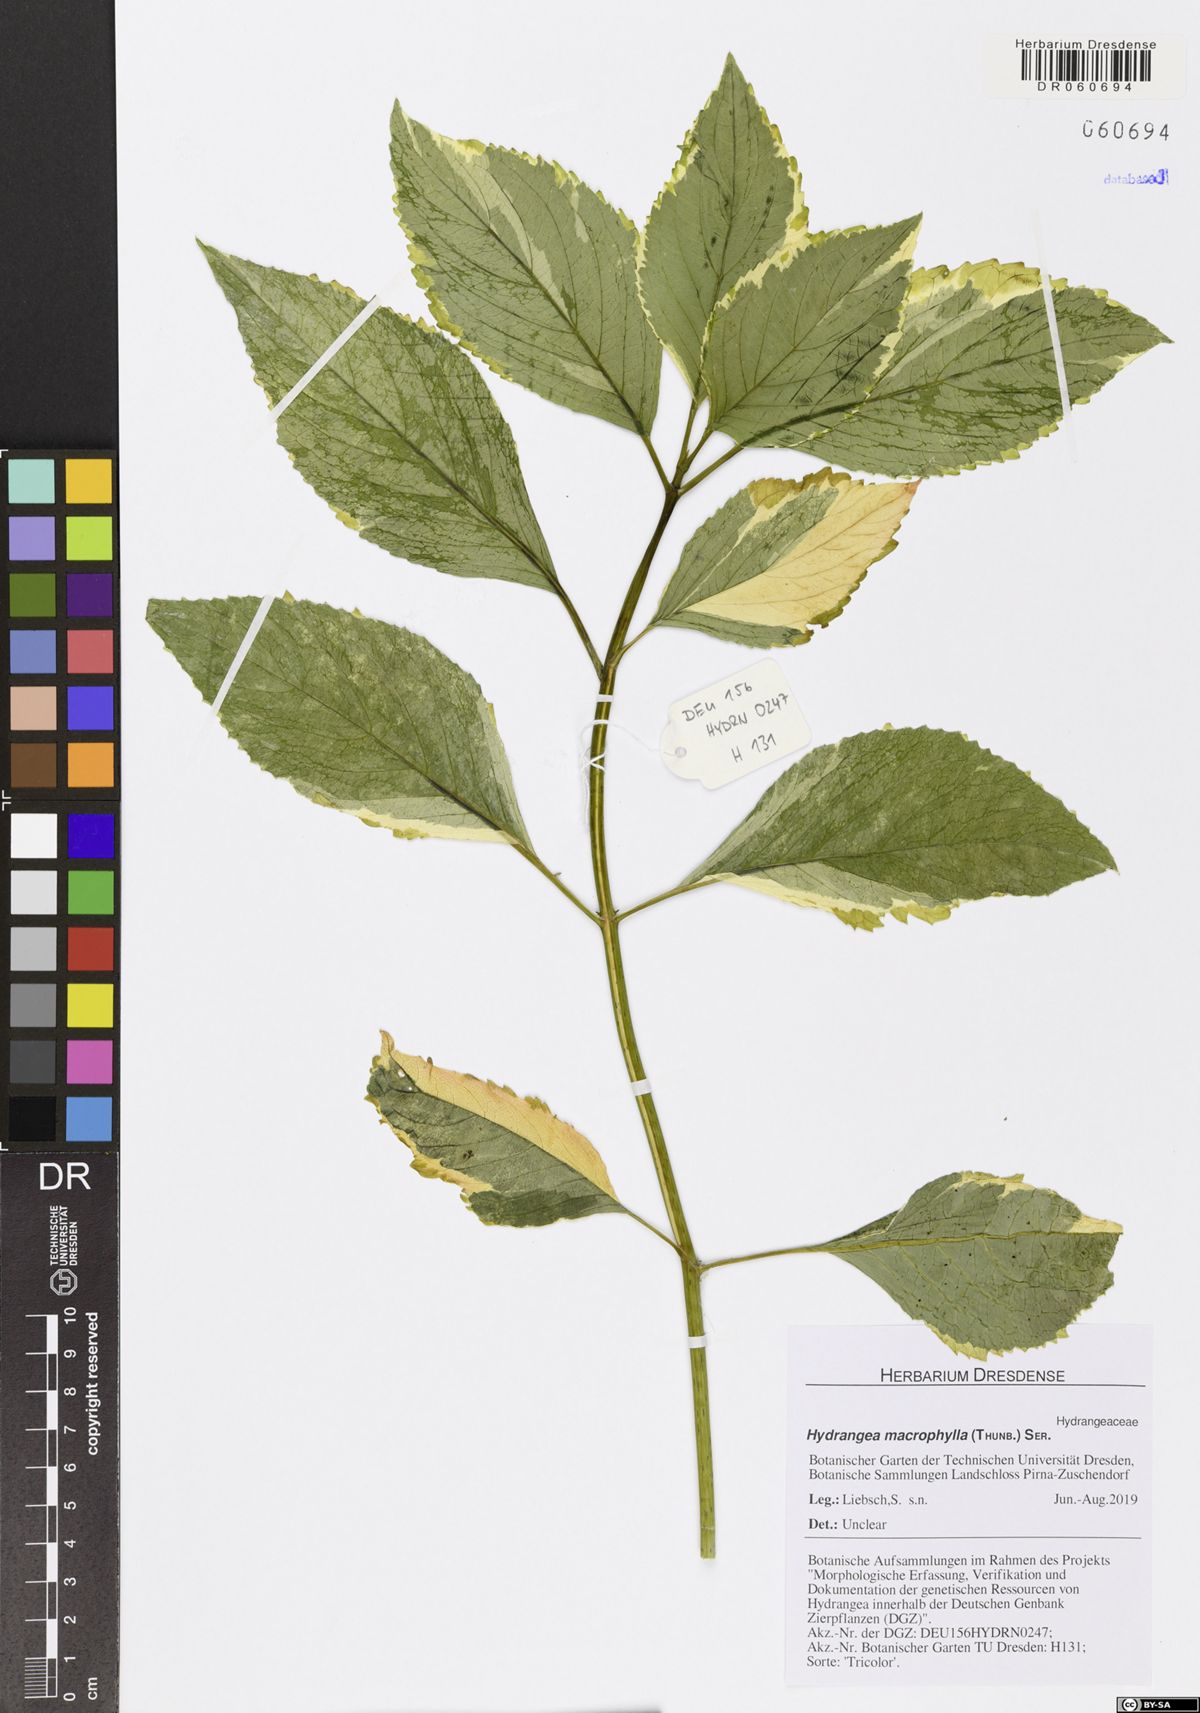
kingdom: Plantae
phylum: Tracheophyta
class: Magnoliopsida
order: Cornales
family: Hydrangeaceae
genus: Hydrangea
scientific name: Hydrangea macrophylla
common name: Hydrangea
